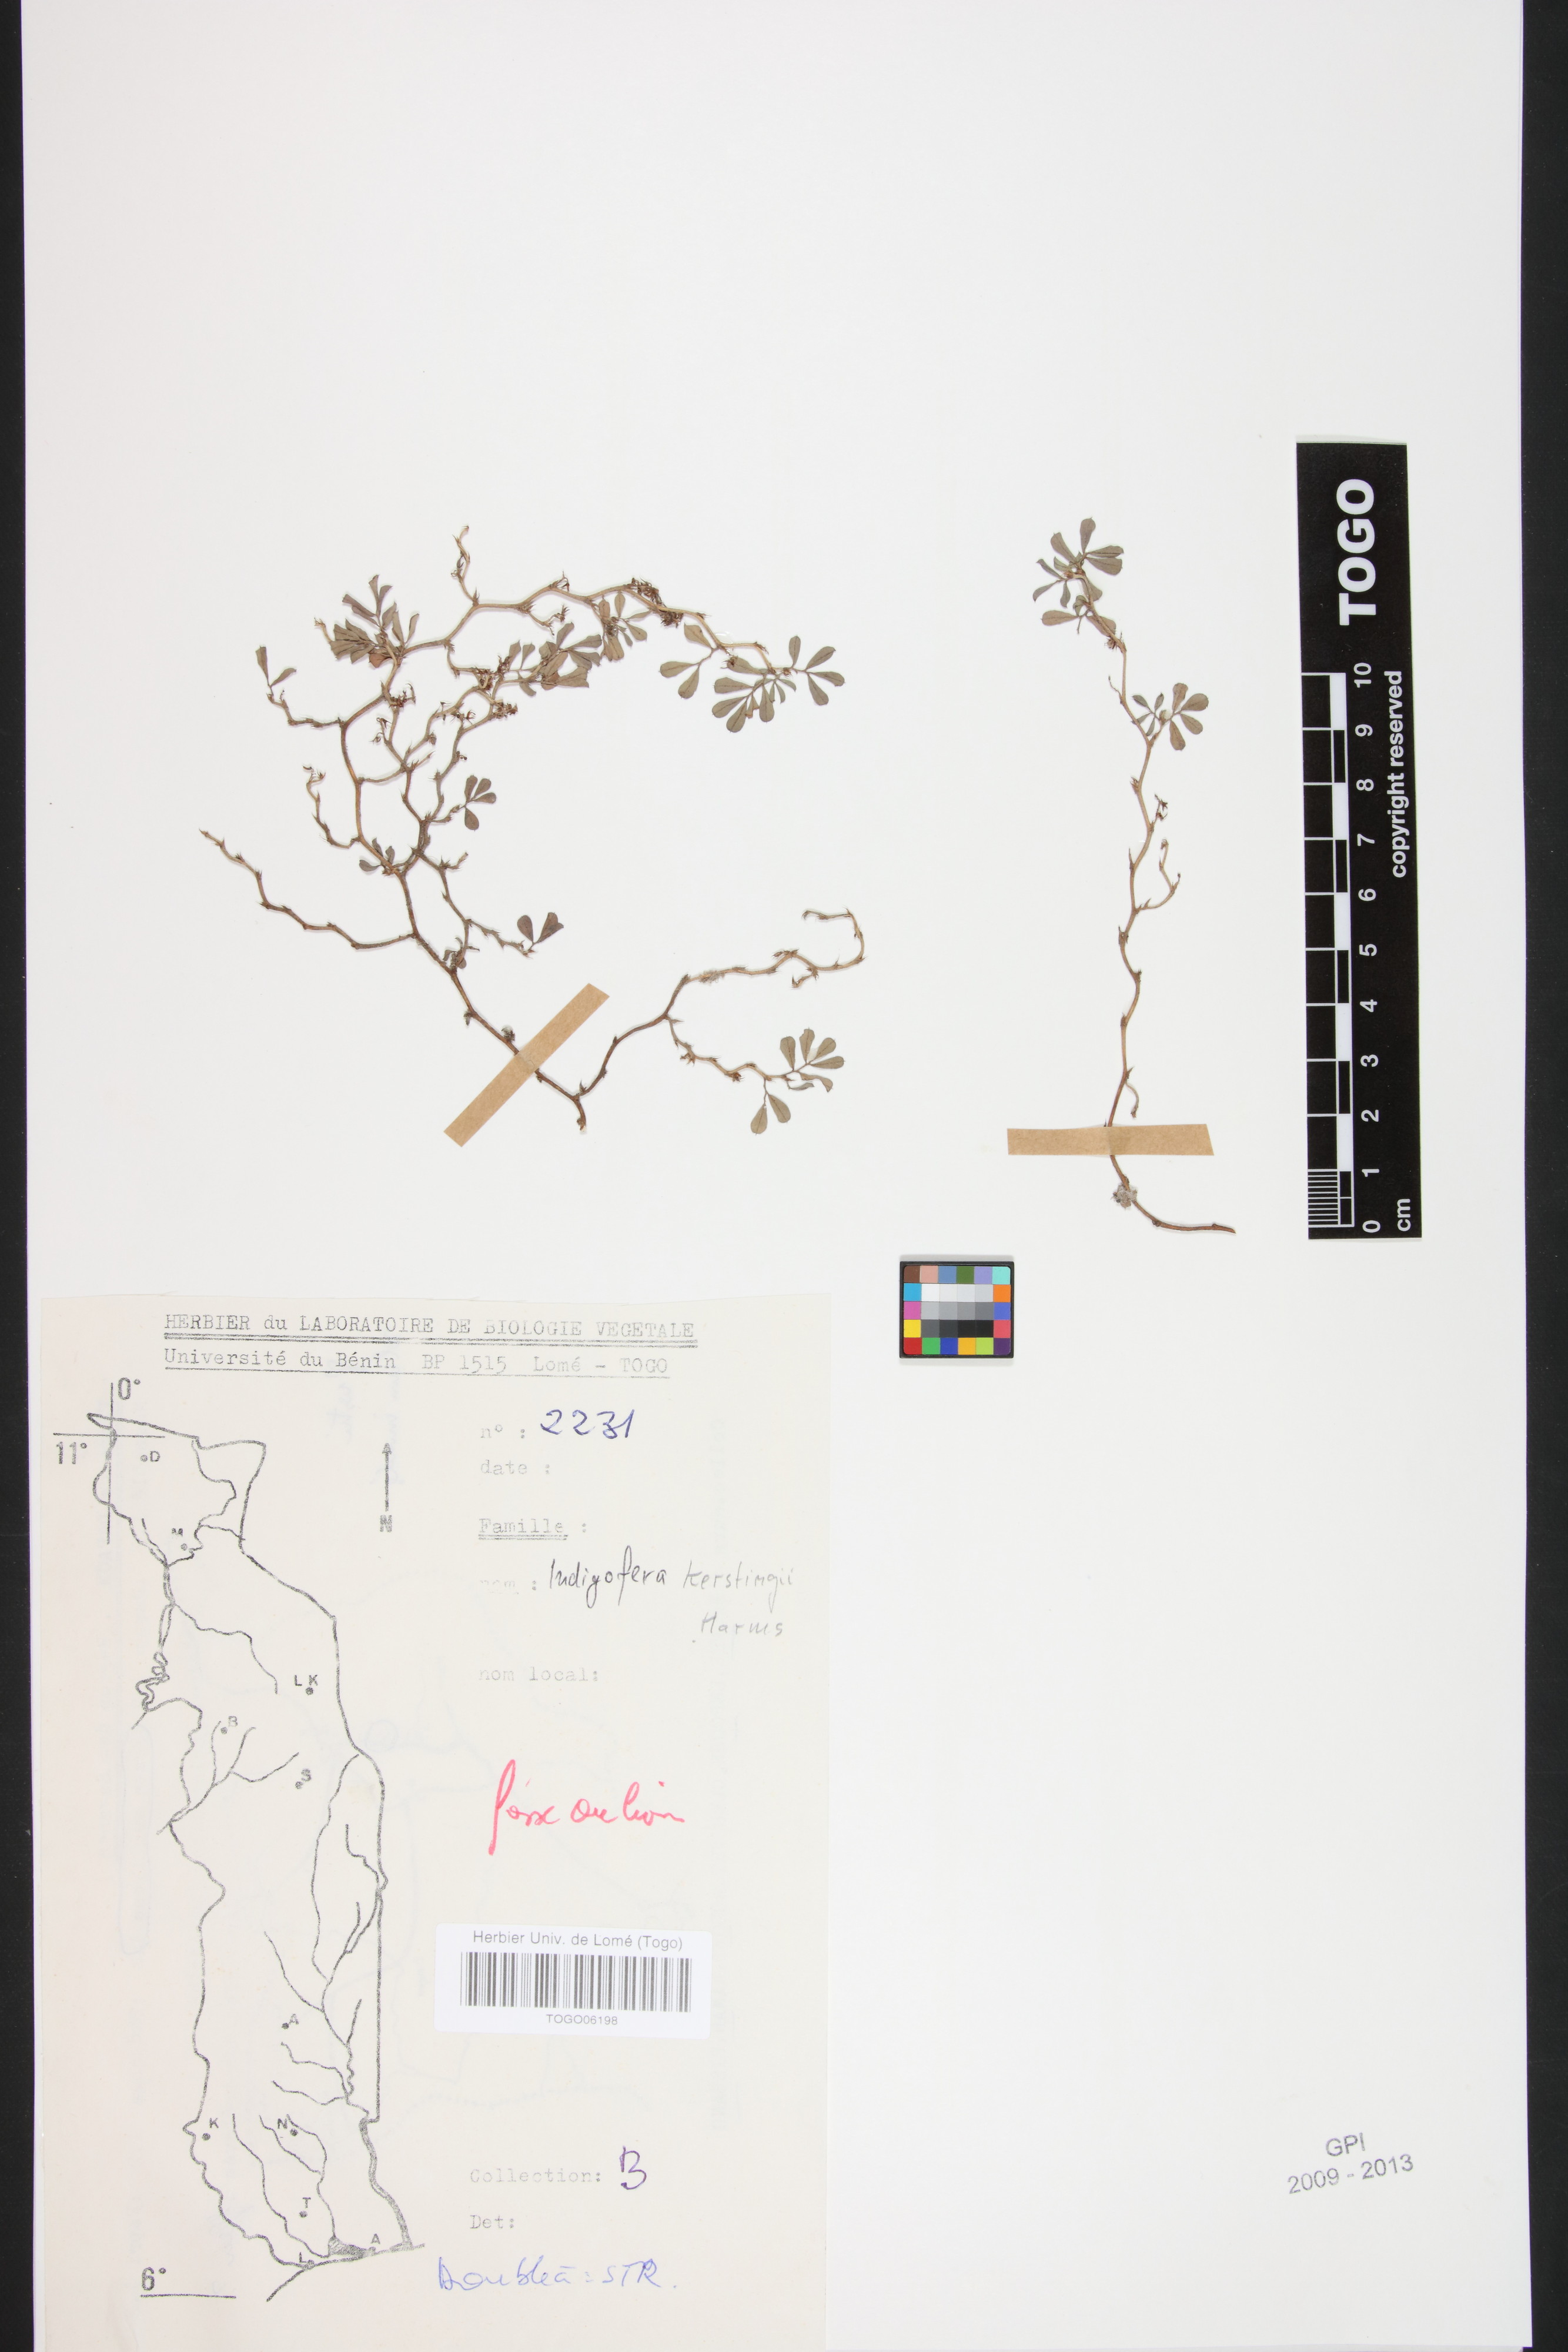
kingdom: Plantae
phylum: Tracheophyta
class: Magnoliopsida
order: Fabales
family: Fabaceae
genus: Indigofera
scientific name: Indigofera kerstingii
